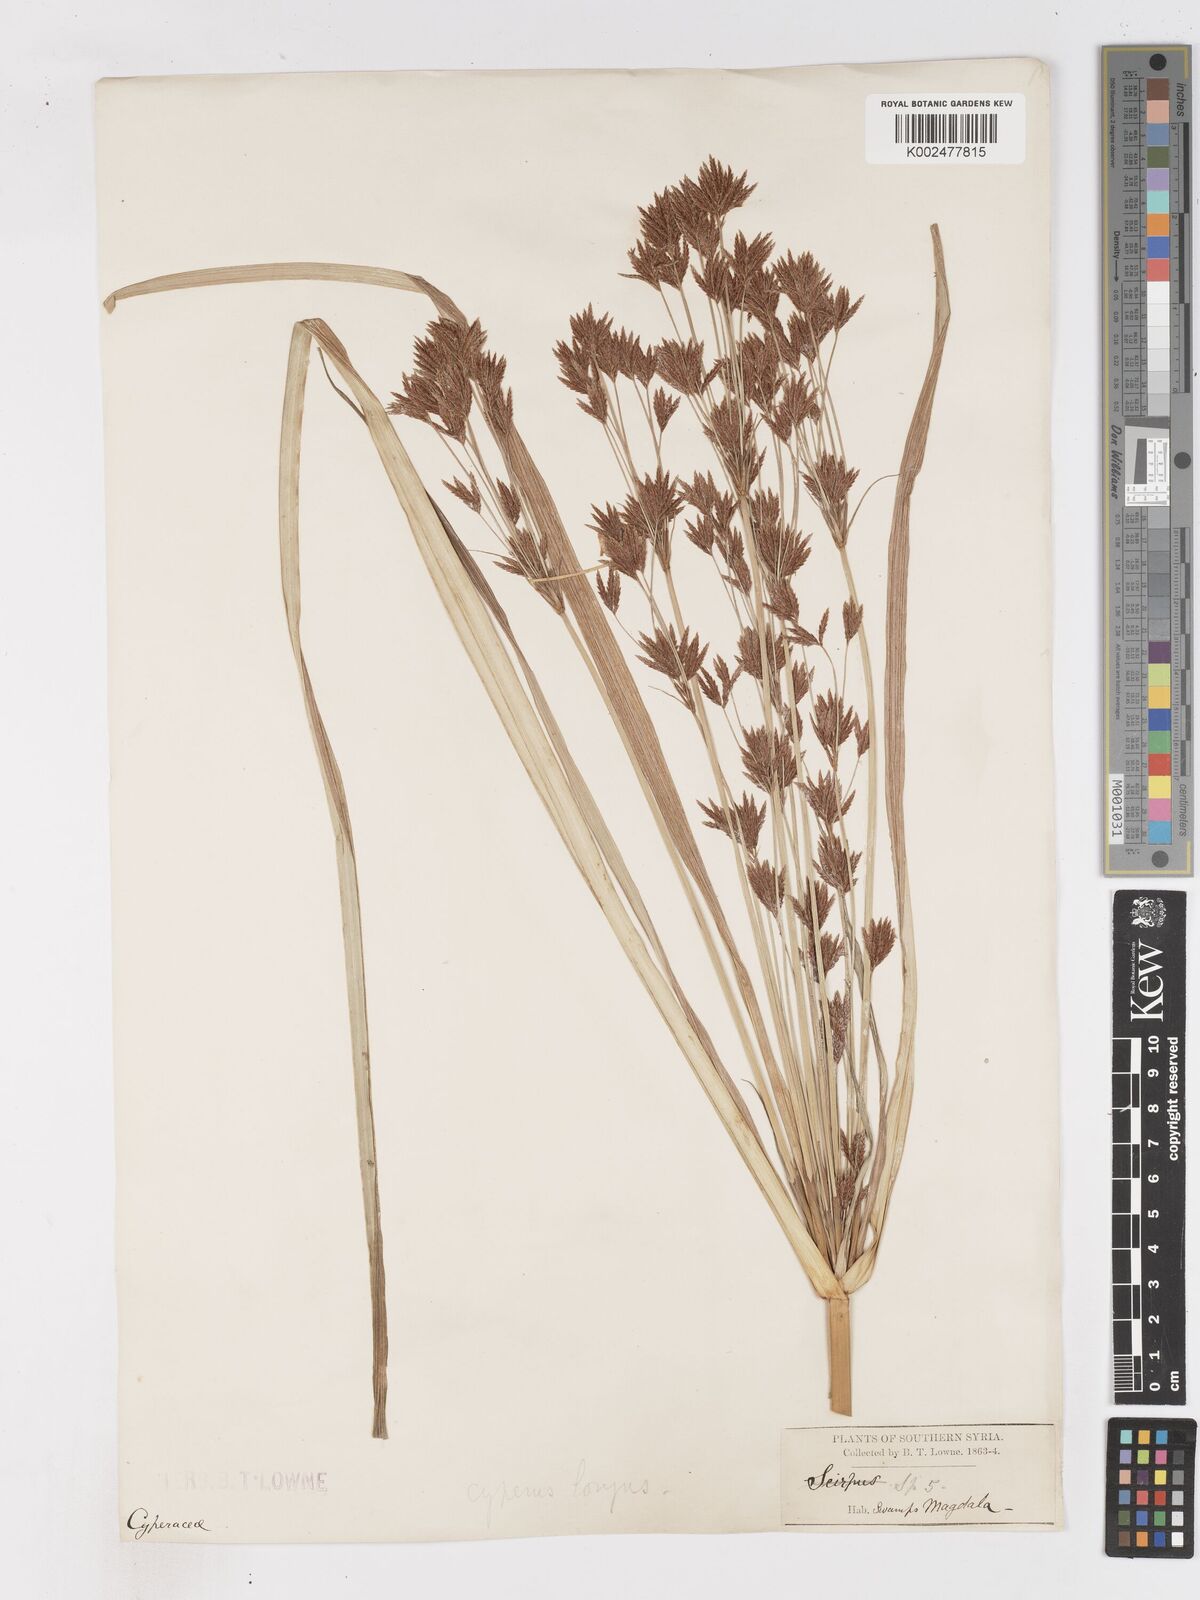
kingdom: Plantae
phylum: Tracheophyta
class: Liliopsida
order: Poales
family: Cyperaceae
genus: Cyperus
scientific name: Cyperus longus
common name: Galingale
